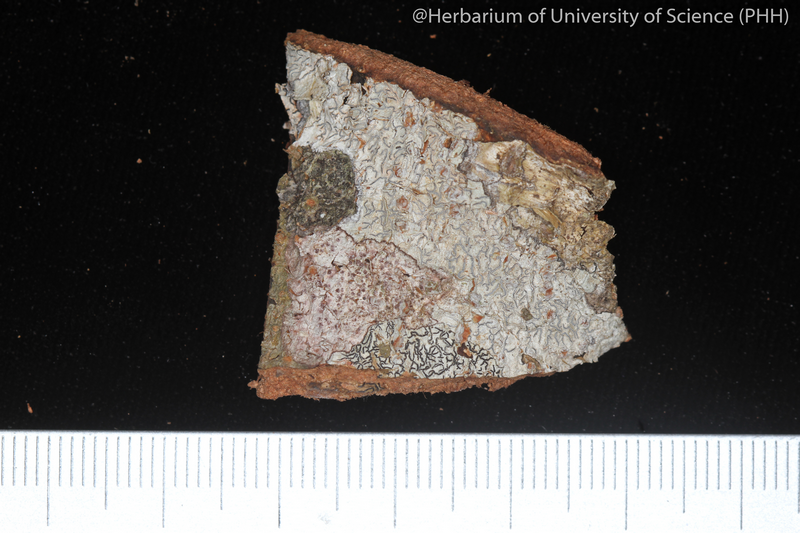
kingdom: Fungi
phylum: Ascomycota
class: Lecanoromycetes
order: Ostropales
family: Graphidaceae
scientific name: Graphidaceae
